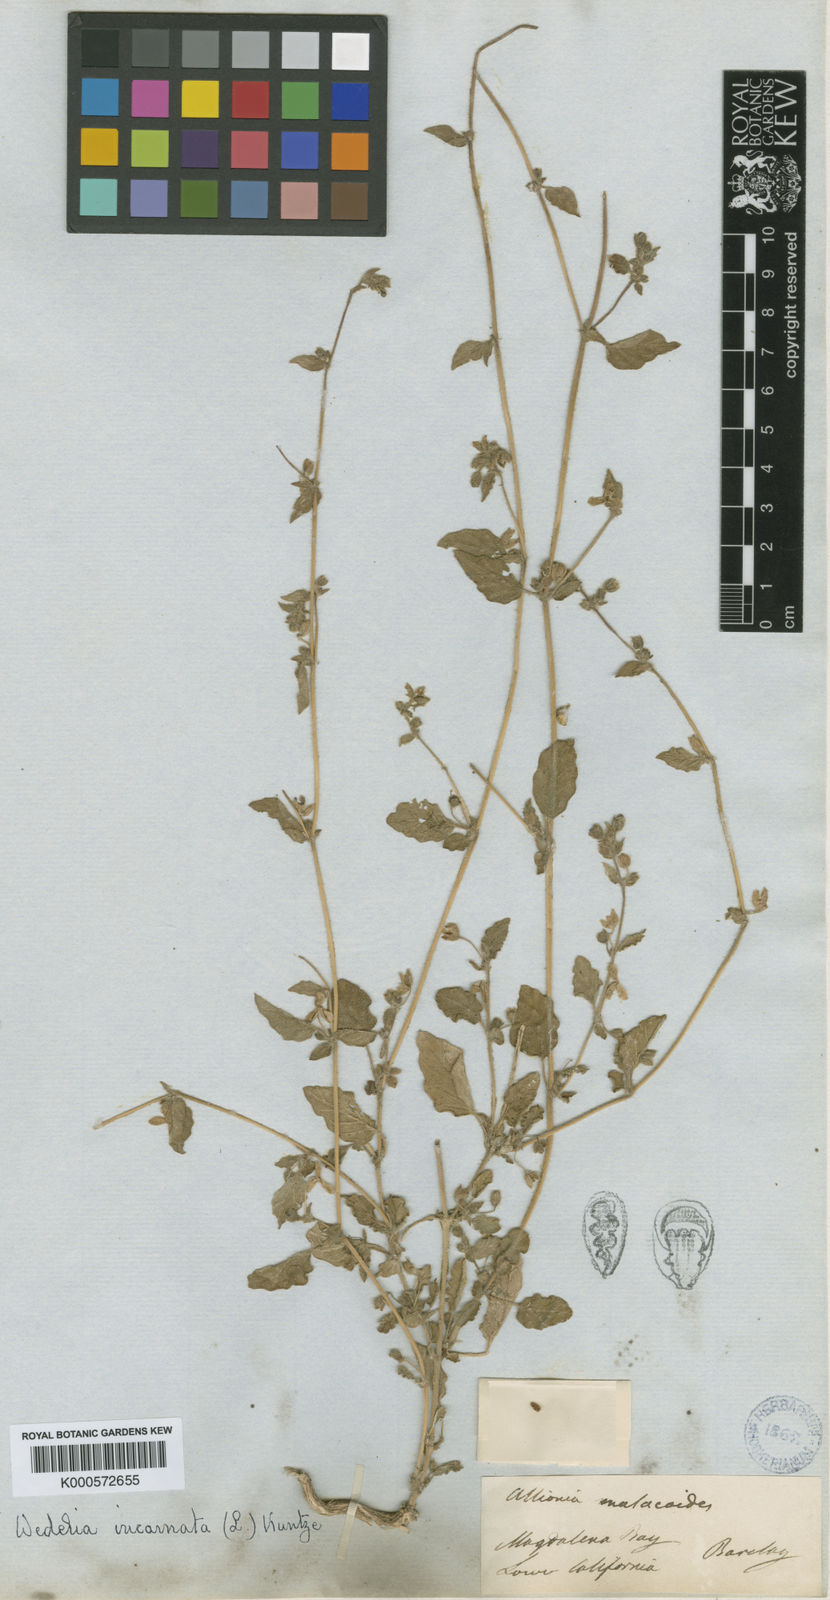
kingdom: Plantae
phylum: Tracheophyta
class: Magnoliopsida
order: Caryophyllales
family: Nyctaginaceae
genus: Allionia
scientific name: Allionia incarnata
